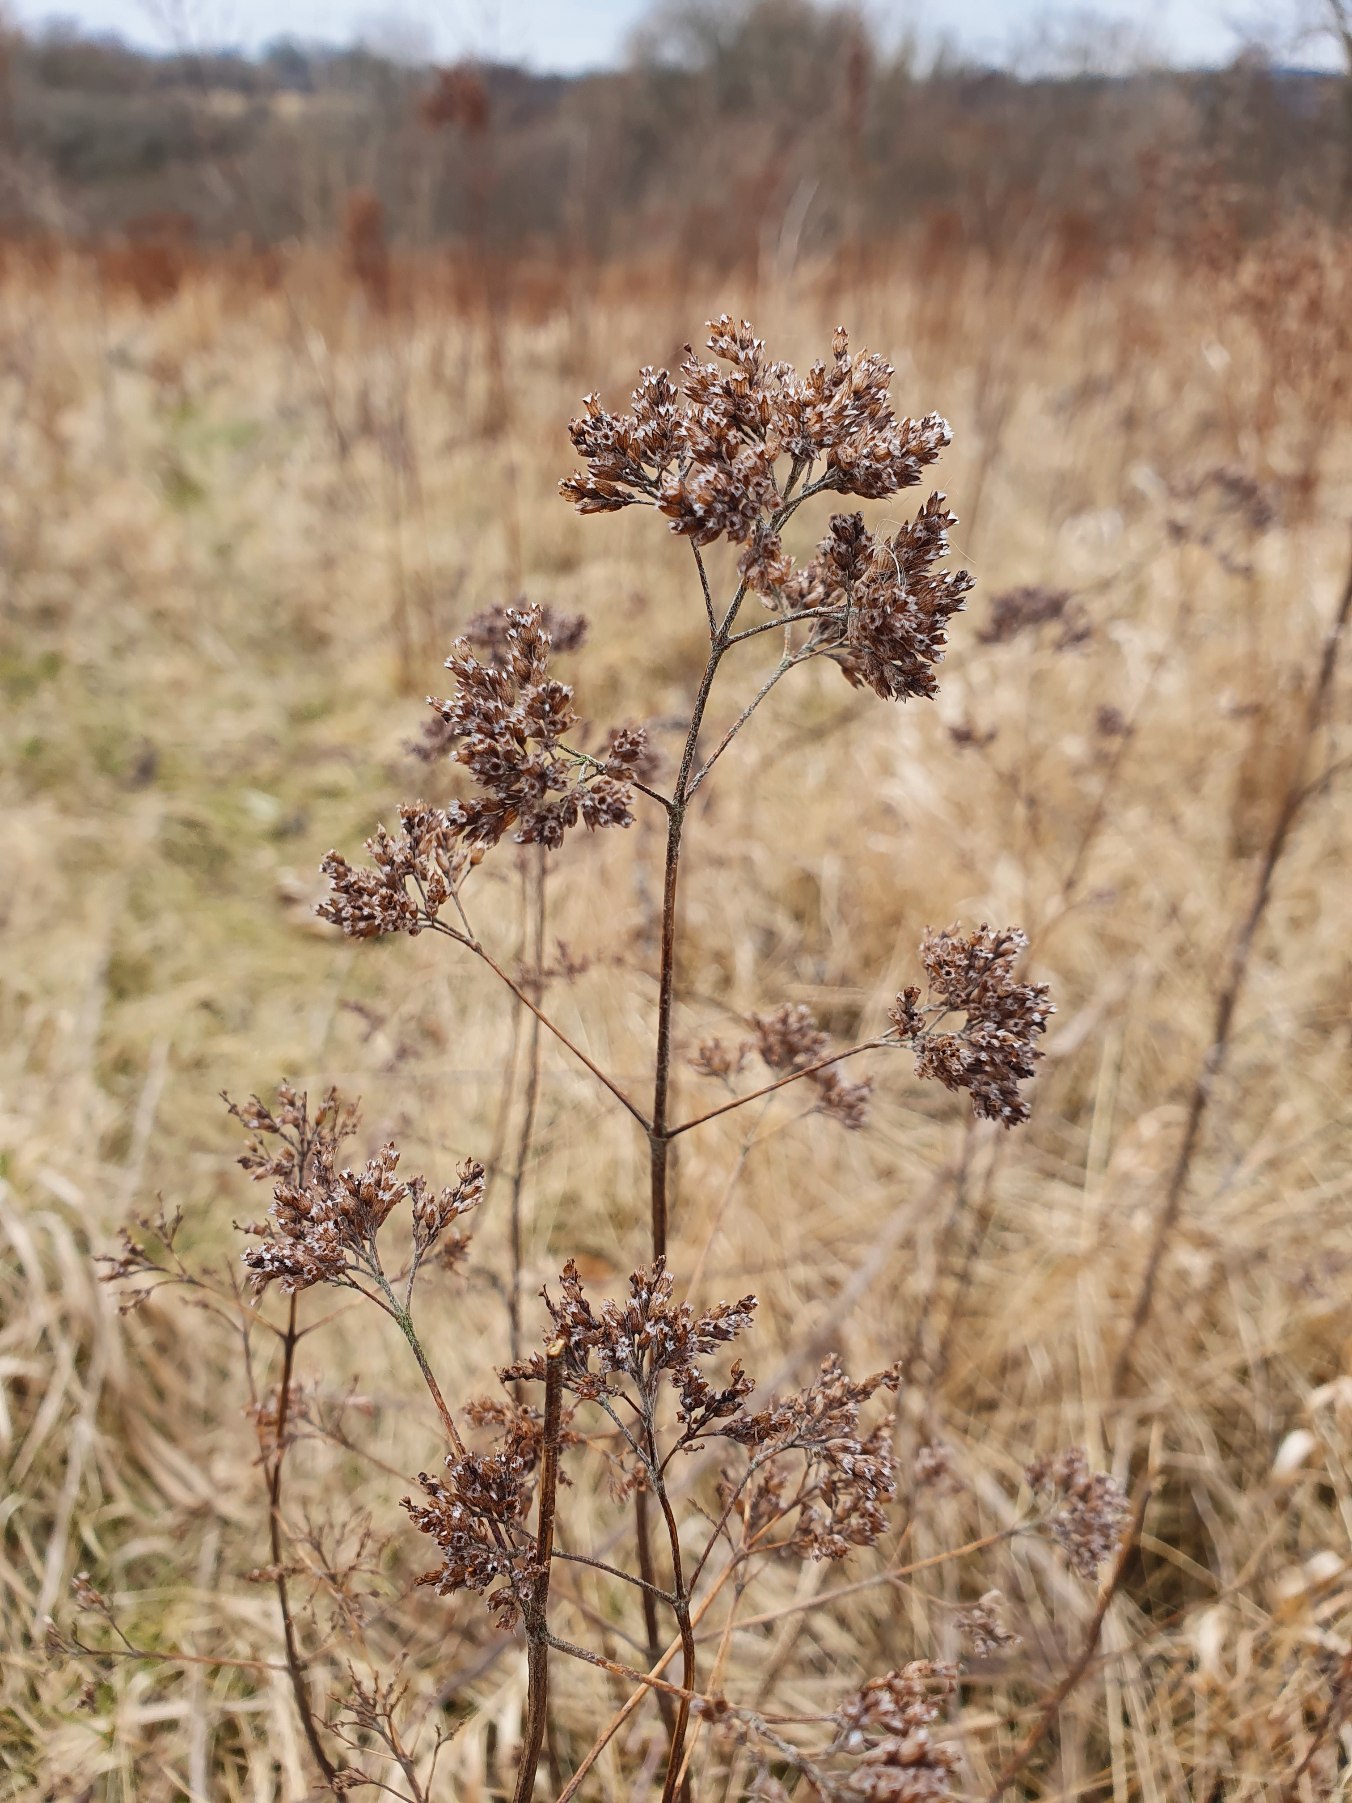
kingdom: Plantae
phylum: Tracheophyta
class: Magnoliopsida
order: Lamiales
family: Lamiaceae
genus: Origanum
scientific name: Origanum vulgare
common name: Merian
